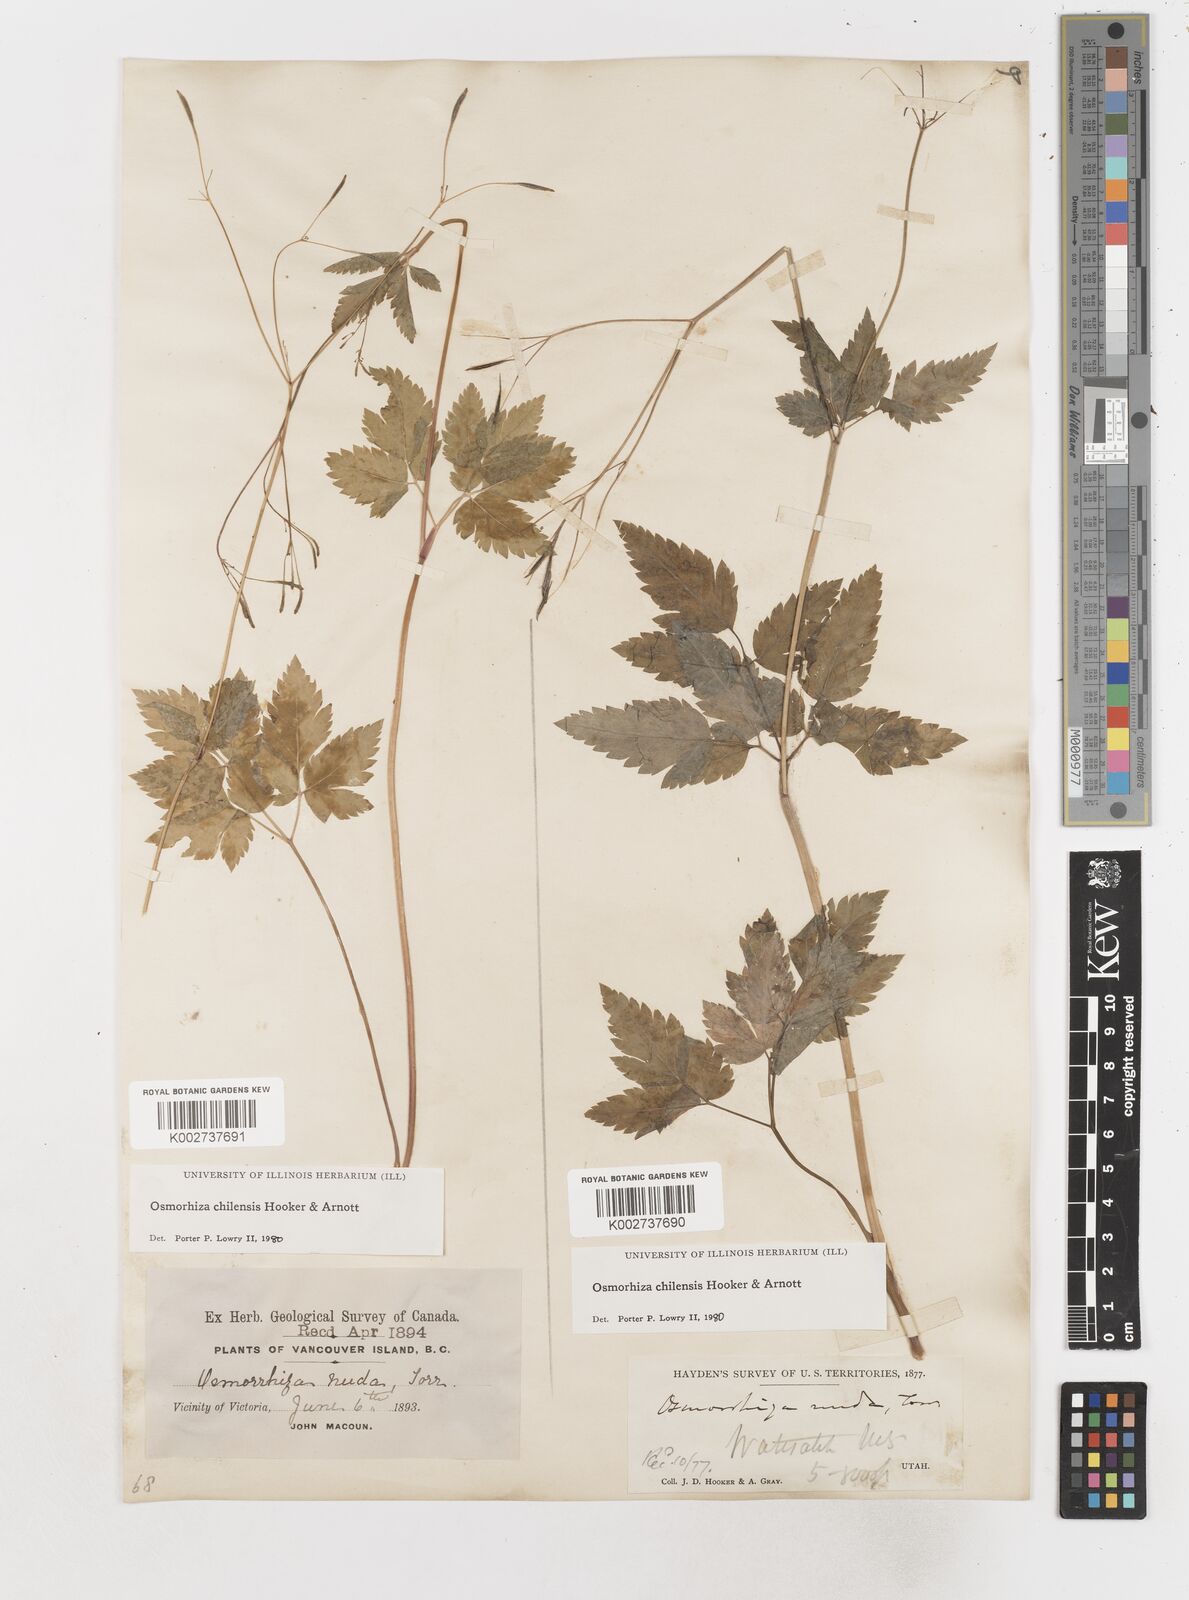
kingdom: Plantae
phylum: Tracheophyta
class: Magnoliopsida
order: Apiales
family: Apiaceae
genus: Osmorhiza
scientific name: Osmorhiza berteroi
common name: Mountain sweet cicely
